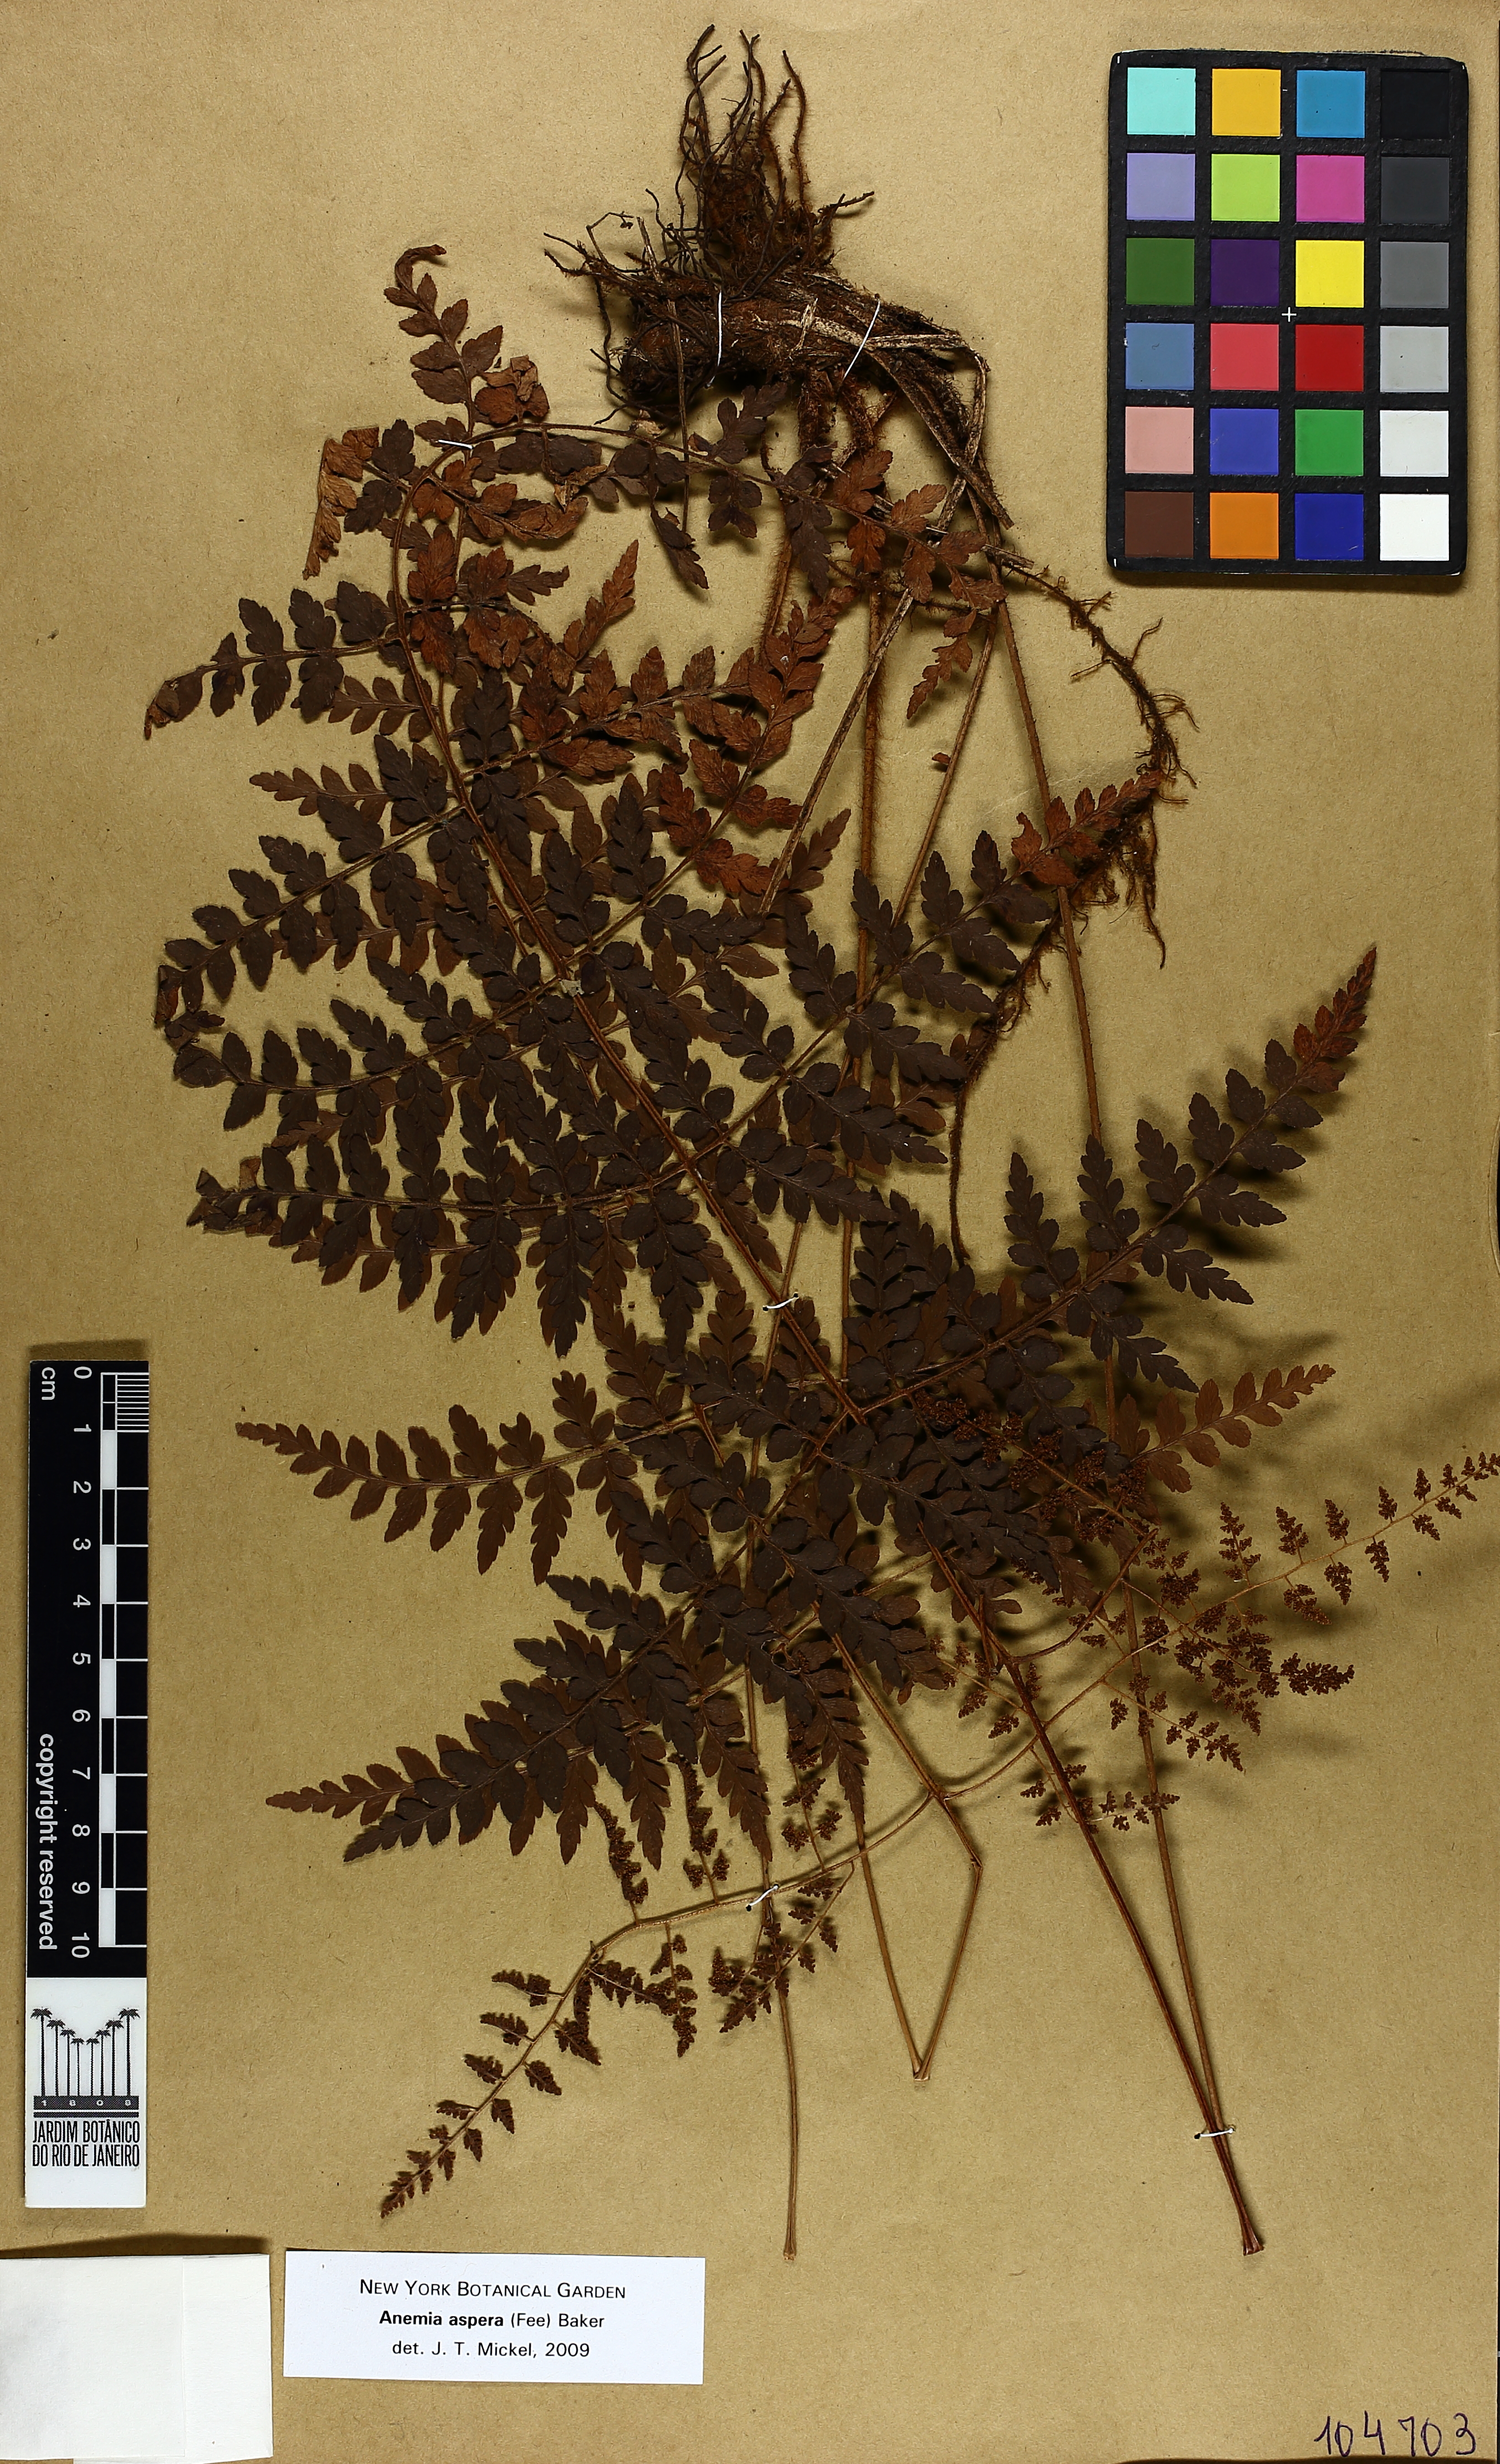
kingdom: Plantae
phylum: Tracheophyta
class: Polypodiopsida
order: Schizaeales
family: Anemiaceae
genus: Anemia
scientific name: Anemia aspera
